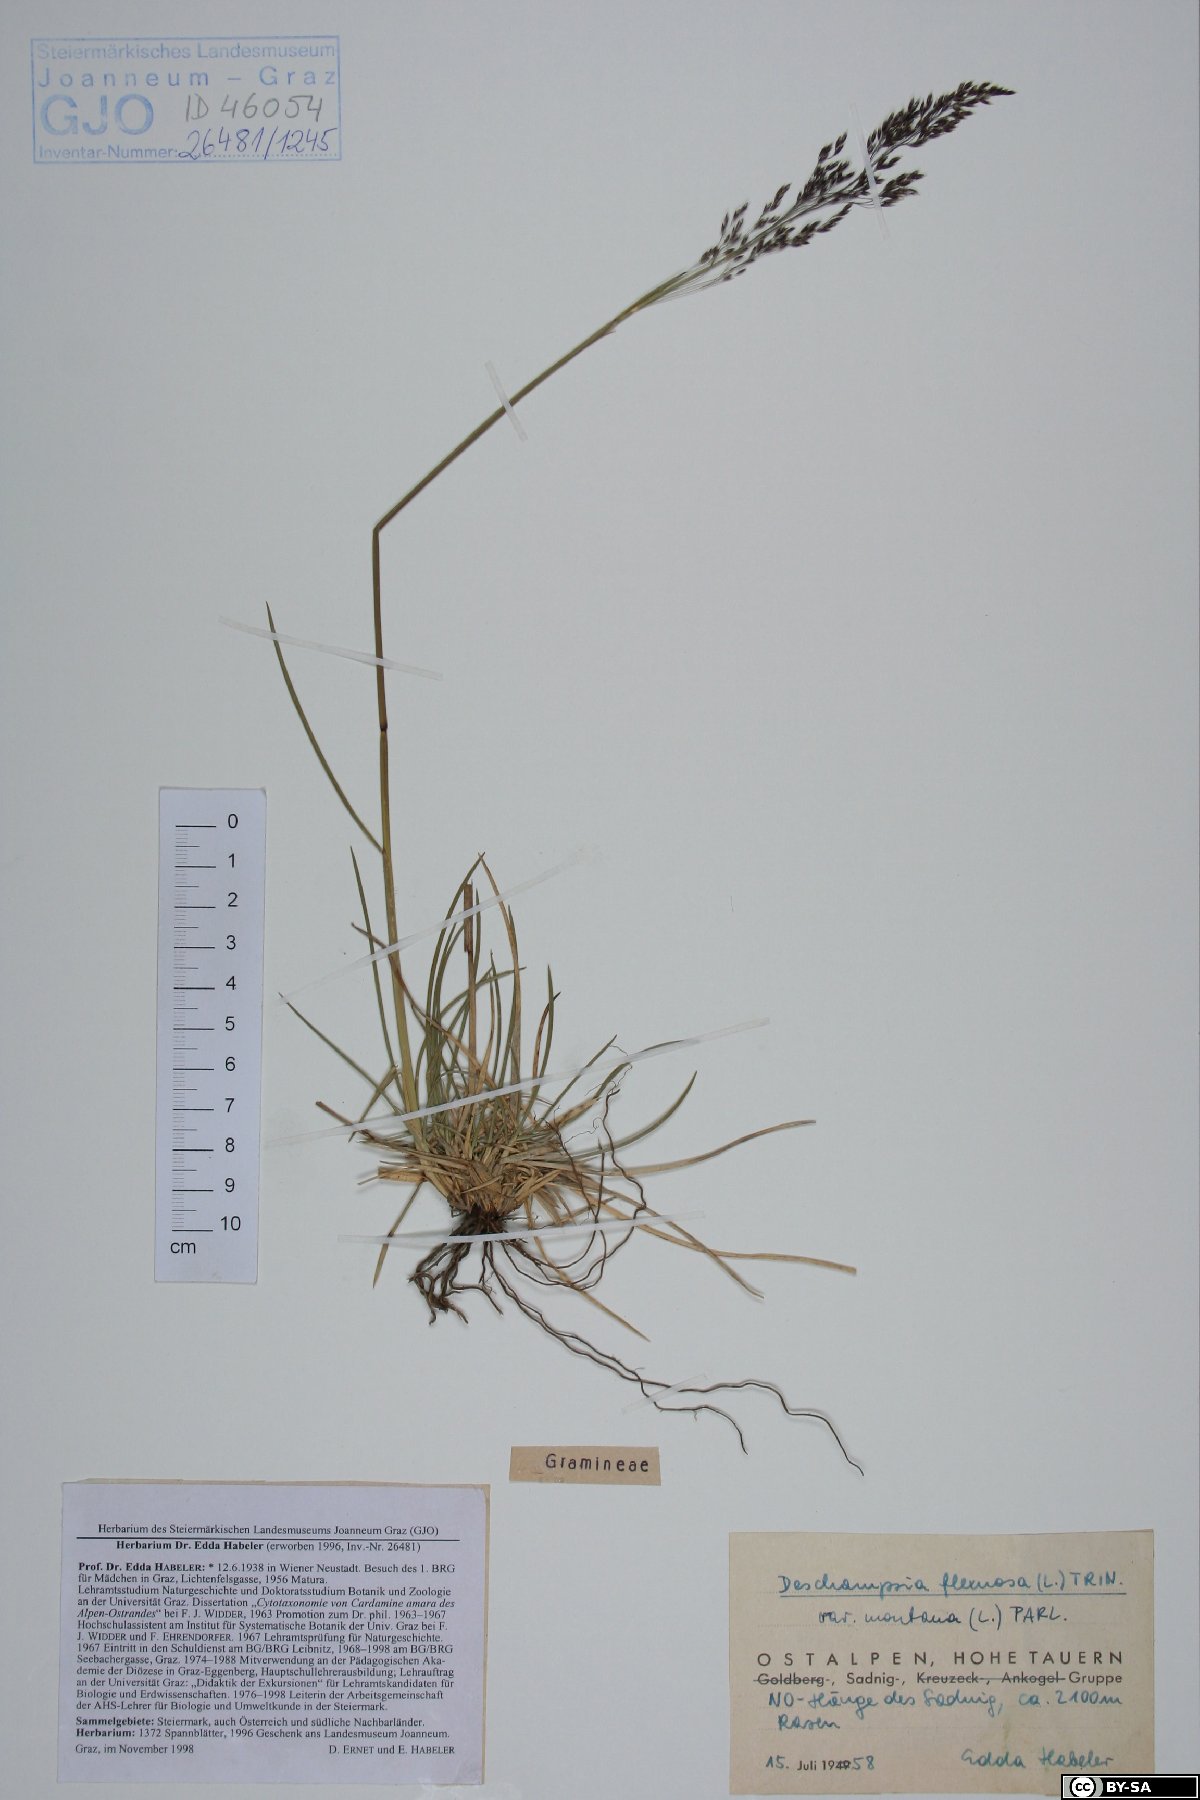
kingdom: Plantae
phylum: Tracheophyta
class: Liliopsida
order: Poales
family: Poaceae
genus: Avenella
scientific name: Avenella flexuosa
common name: Wavy hairgrass
